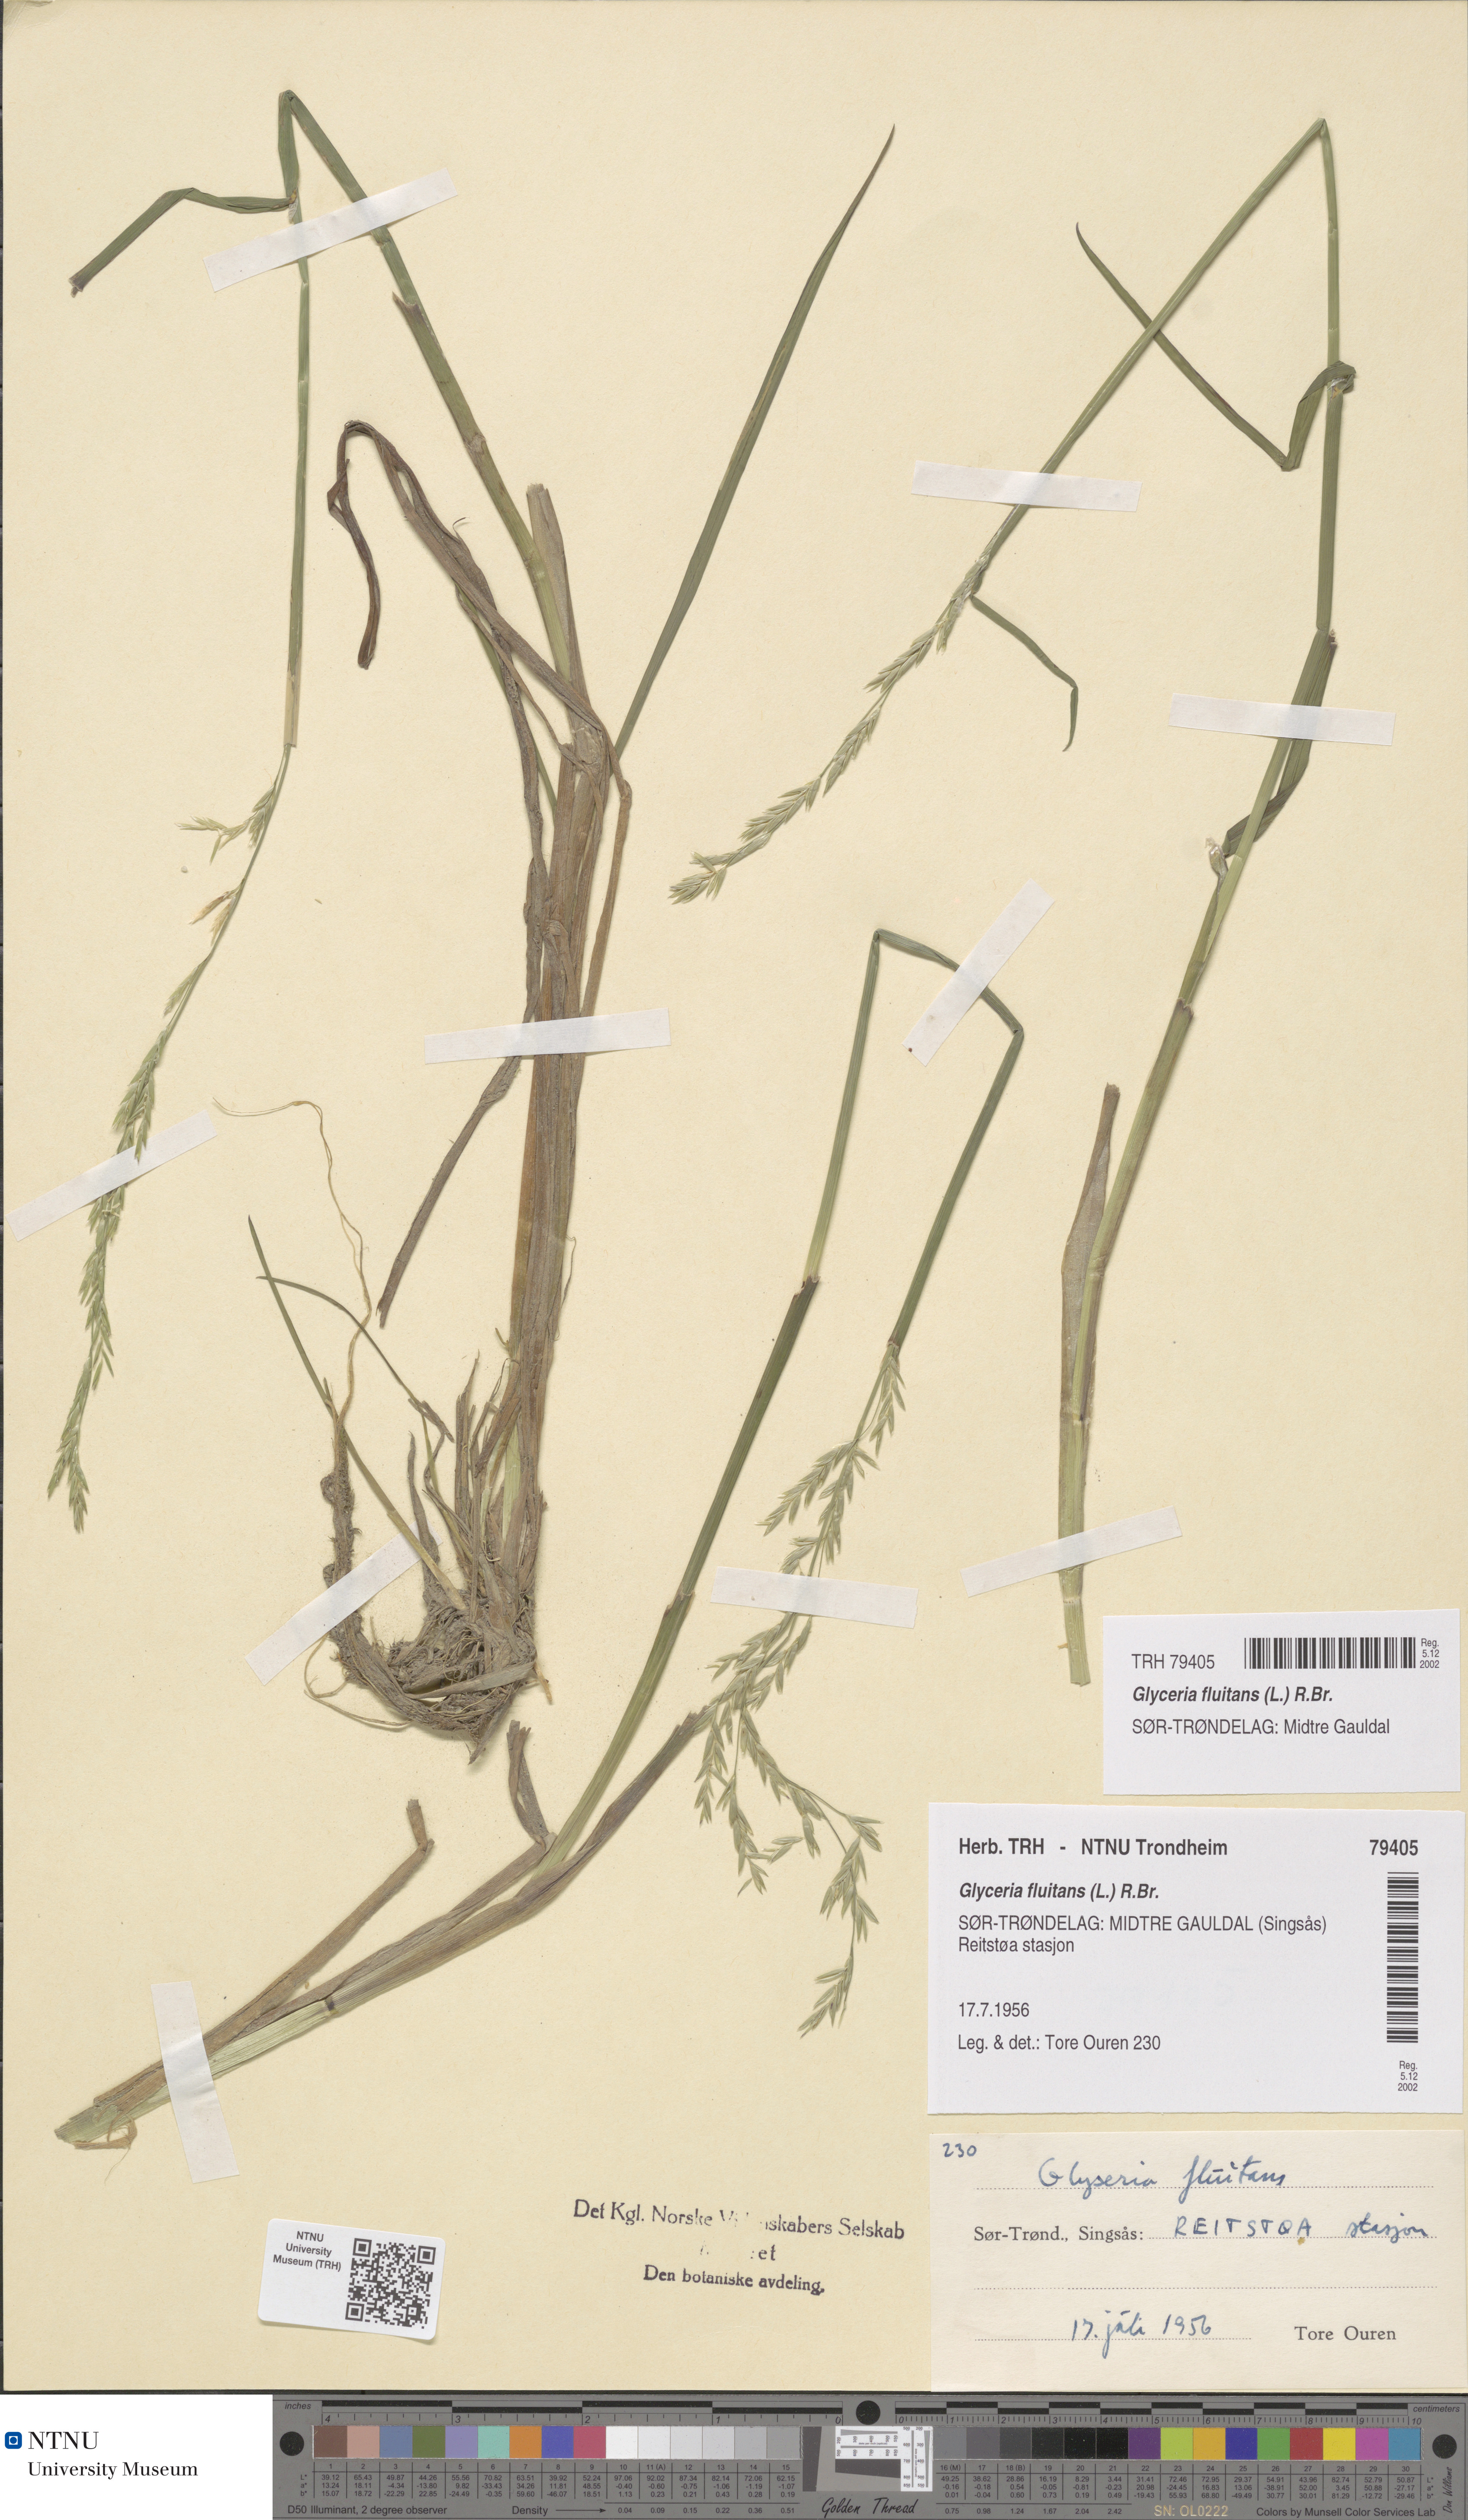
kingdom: Plantae
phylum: Tracheophyta
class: Liliopsida
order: Poales
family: Poaceae
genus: Glyceria
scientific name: Glyceria fluitans
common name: Floating sweet-grass
